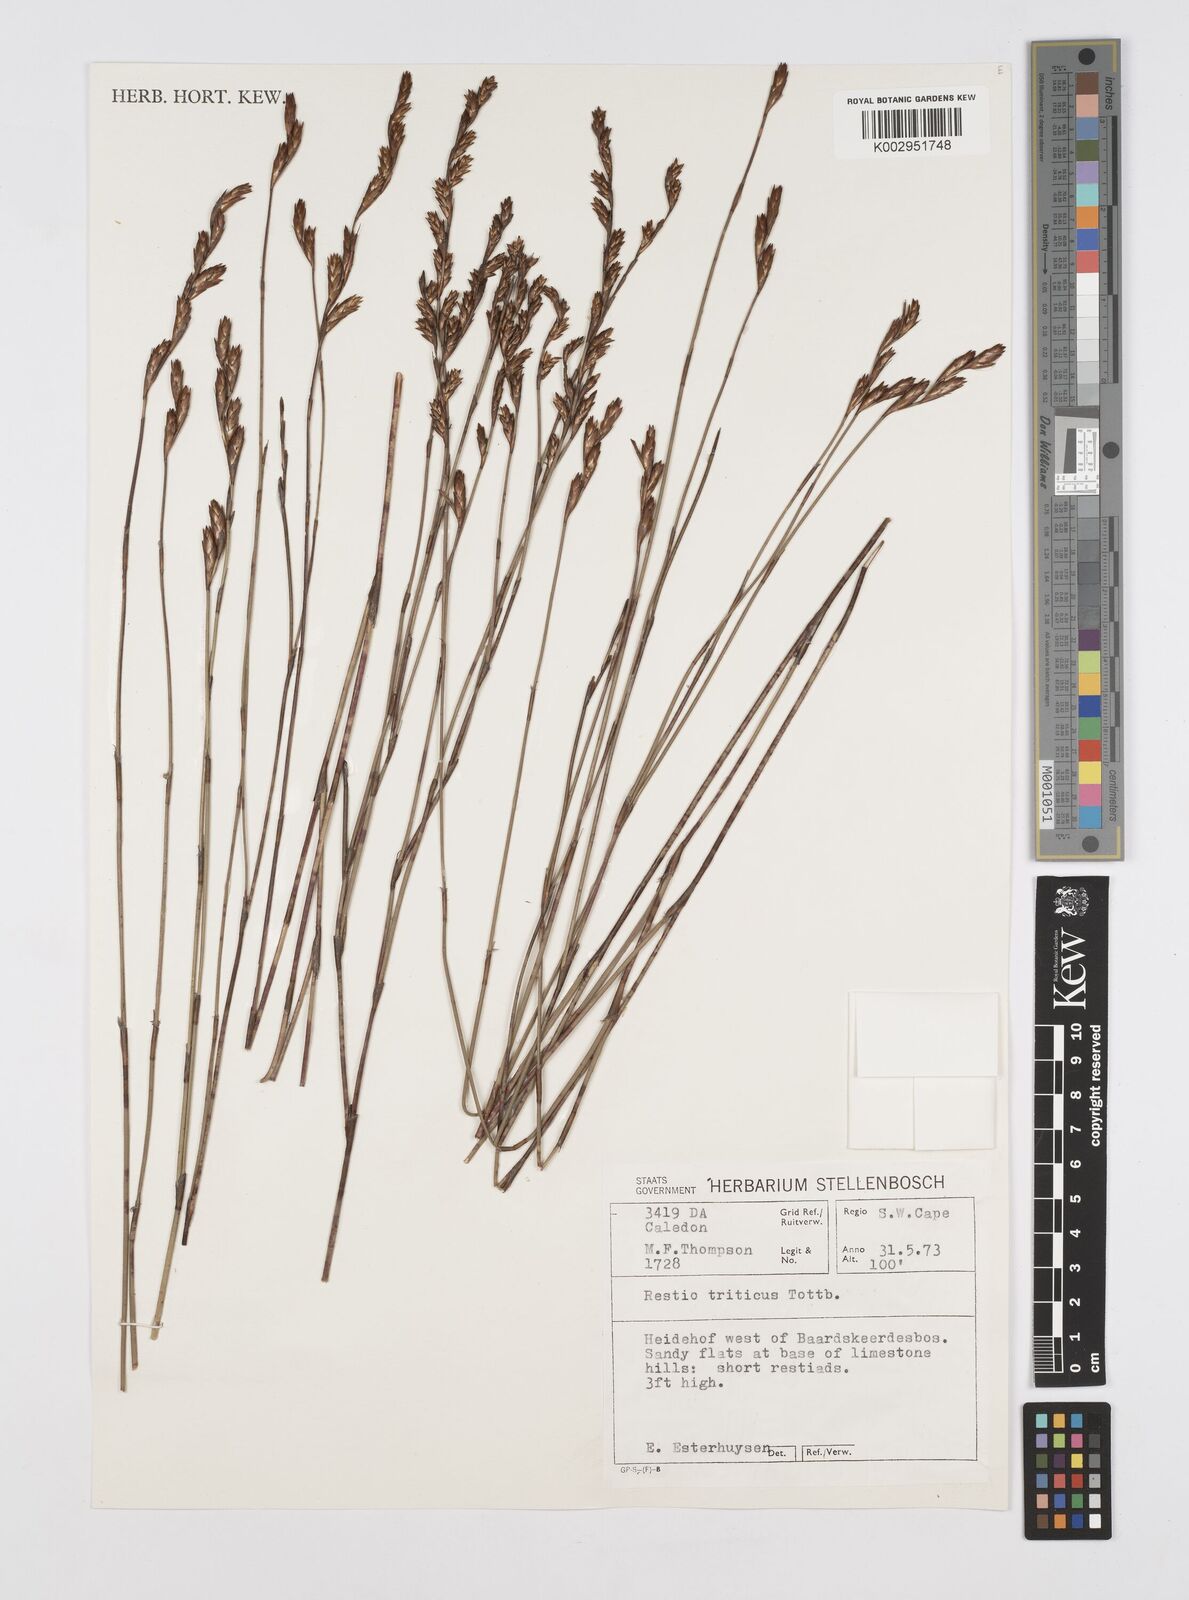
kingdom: Plantae
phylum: Tracheophyta
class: Liliopsida
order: Poales
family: Restionaceae
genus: Restio
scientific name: Restio triticeus
